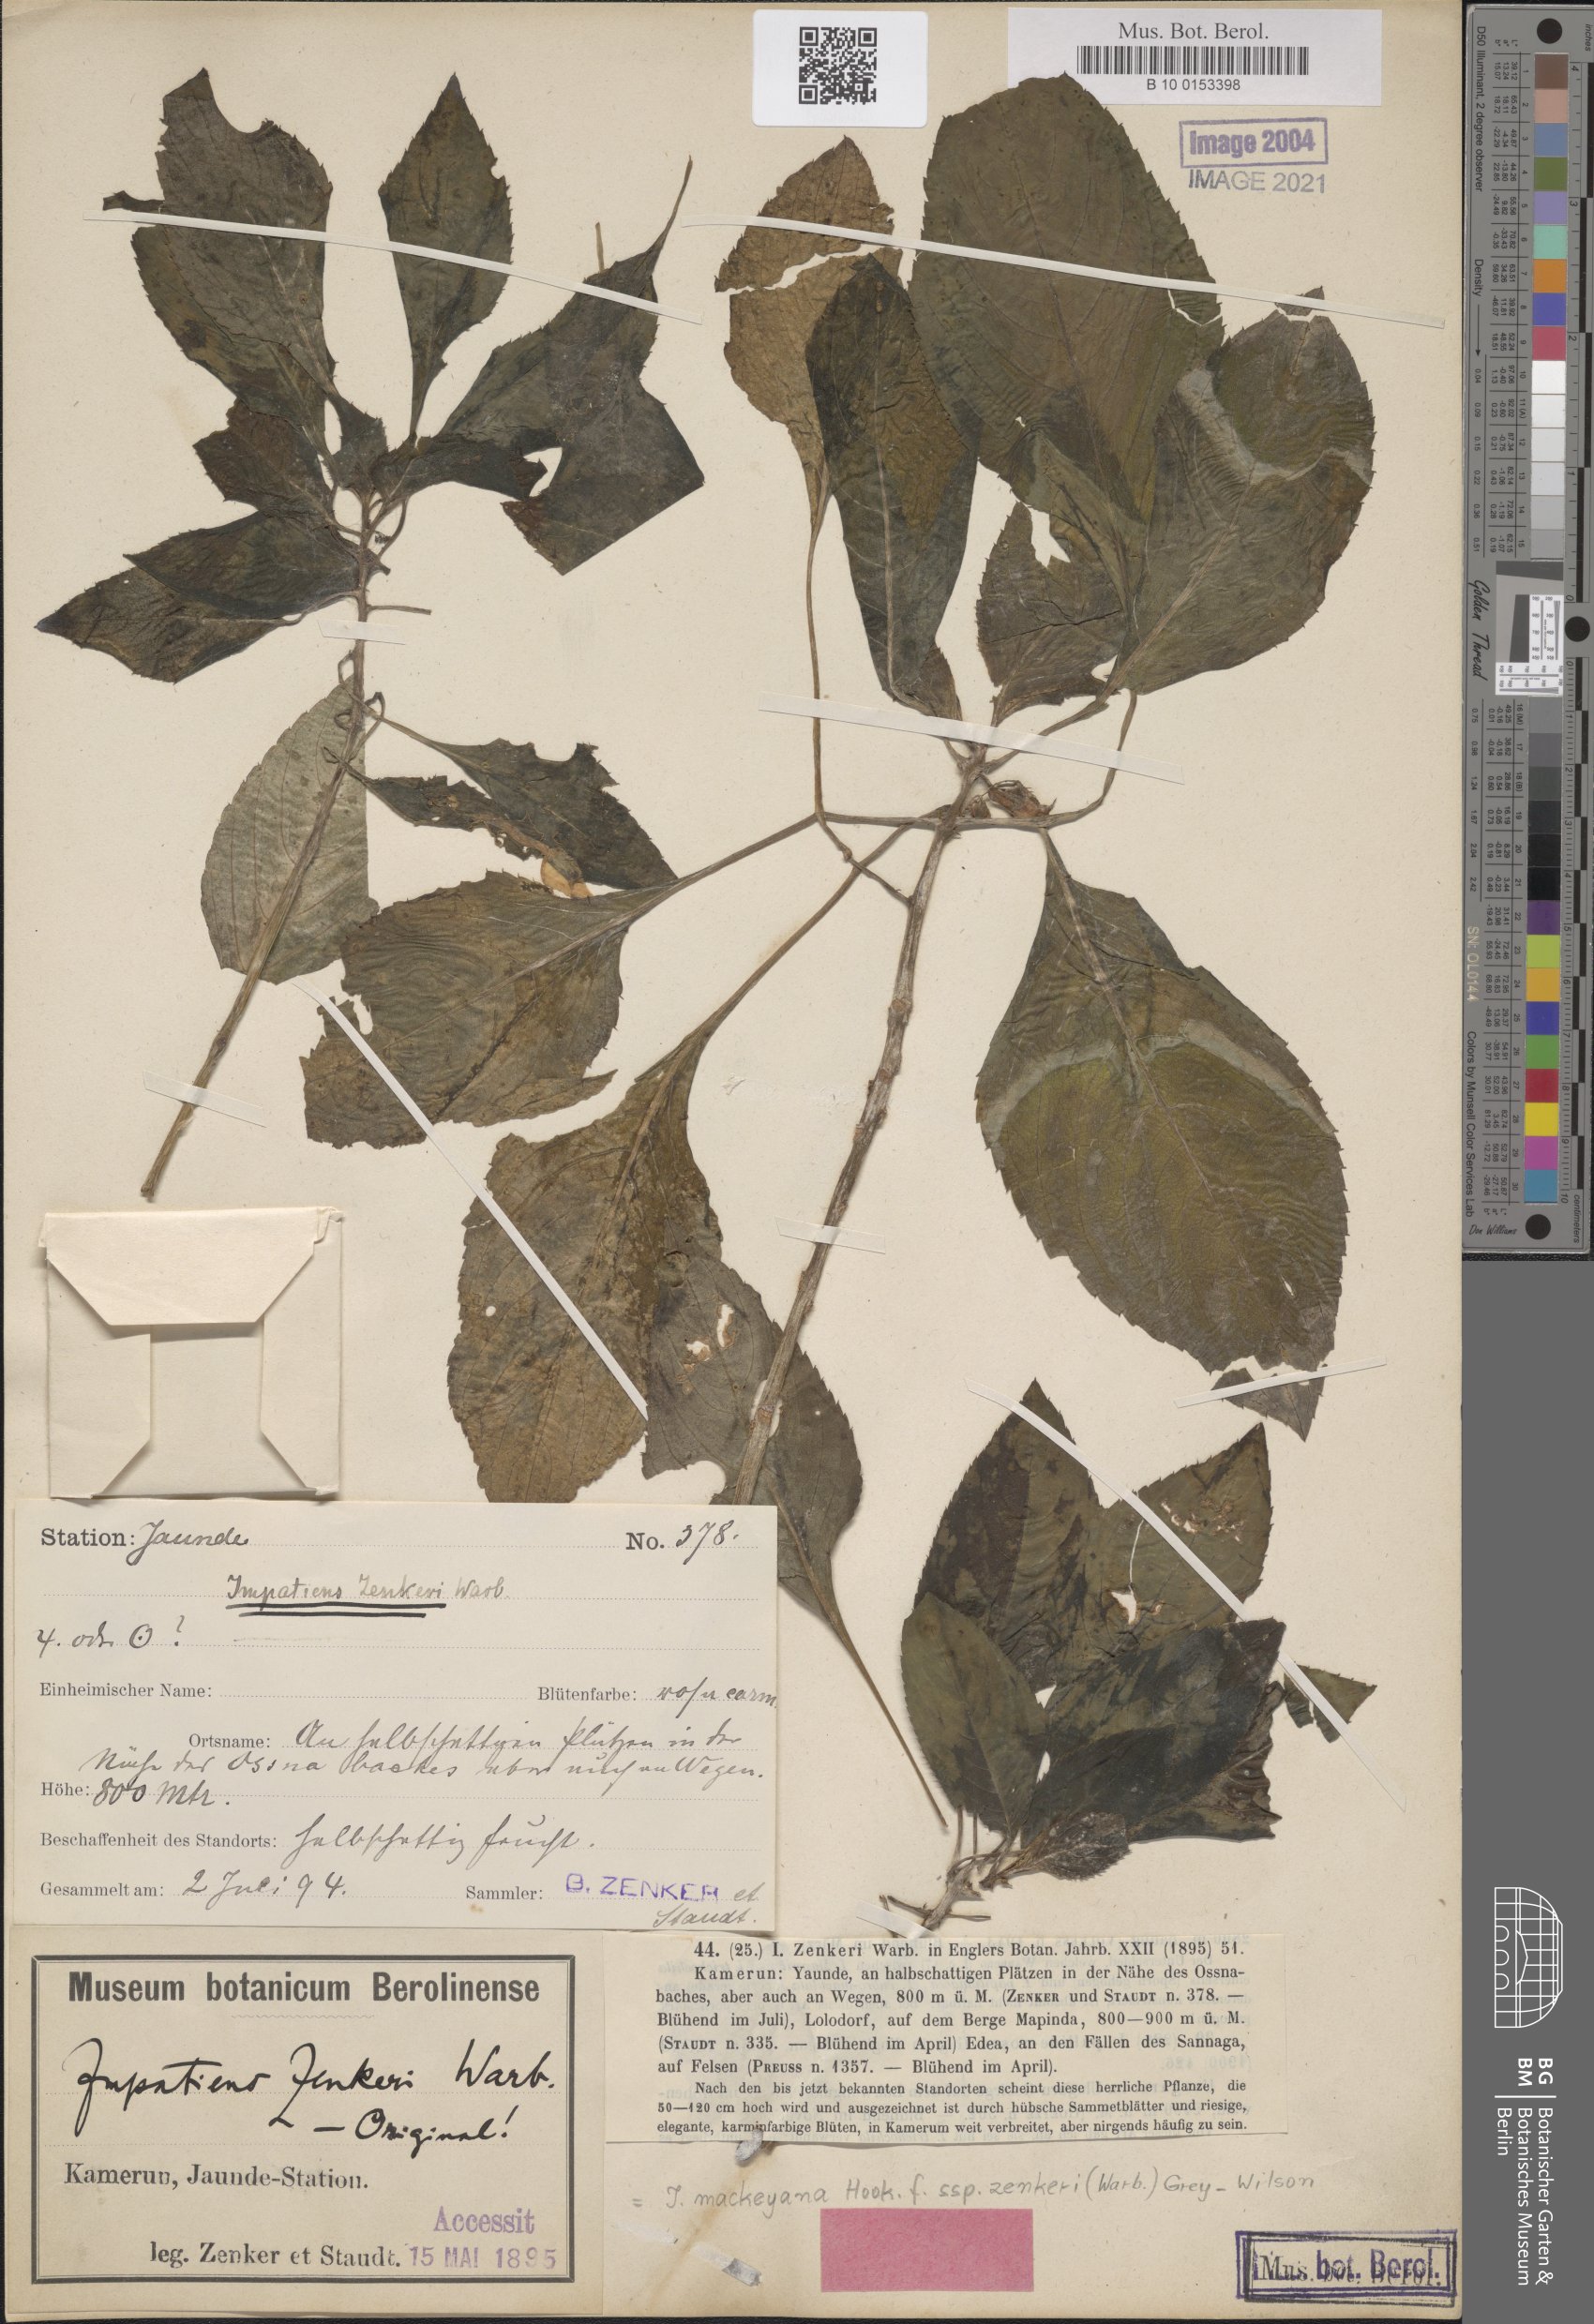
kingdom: Plantae
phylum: Tracheophyta
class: Magnoliopsida
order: Ericales
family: Balsaminaceae
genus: Impatiens
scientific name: Impatiens mackeyana
